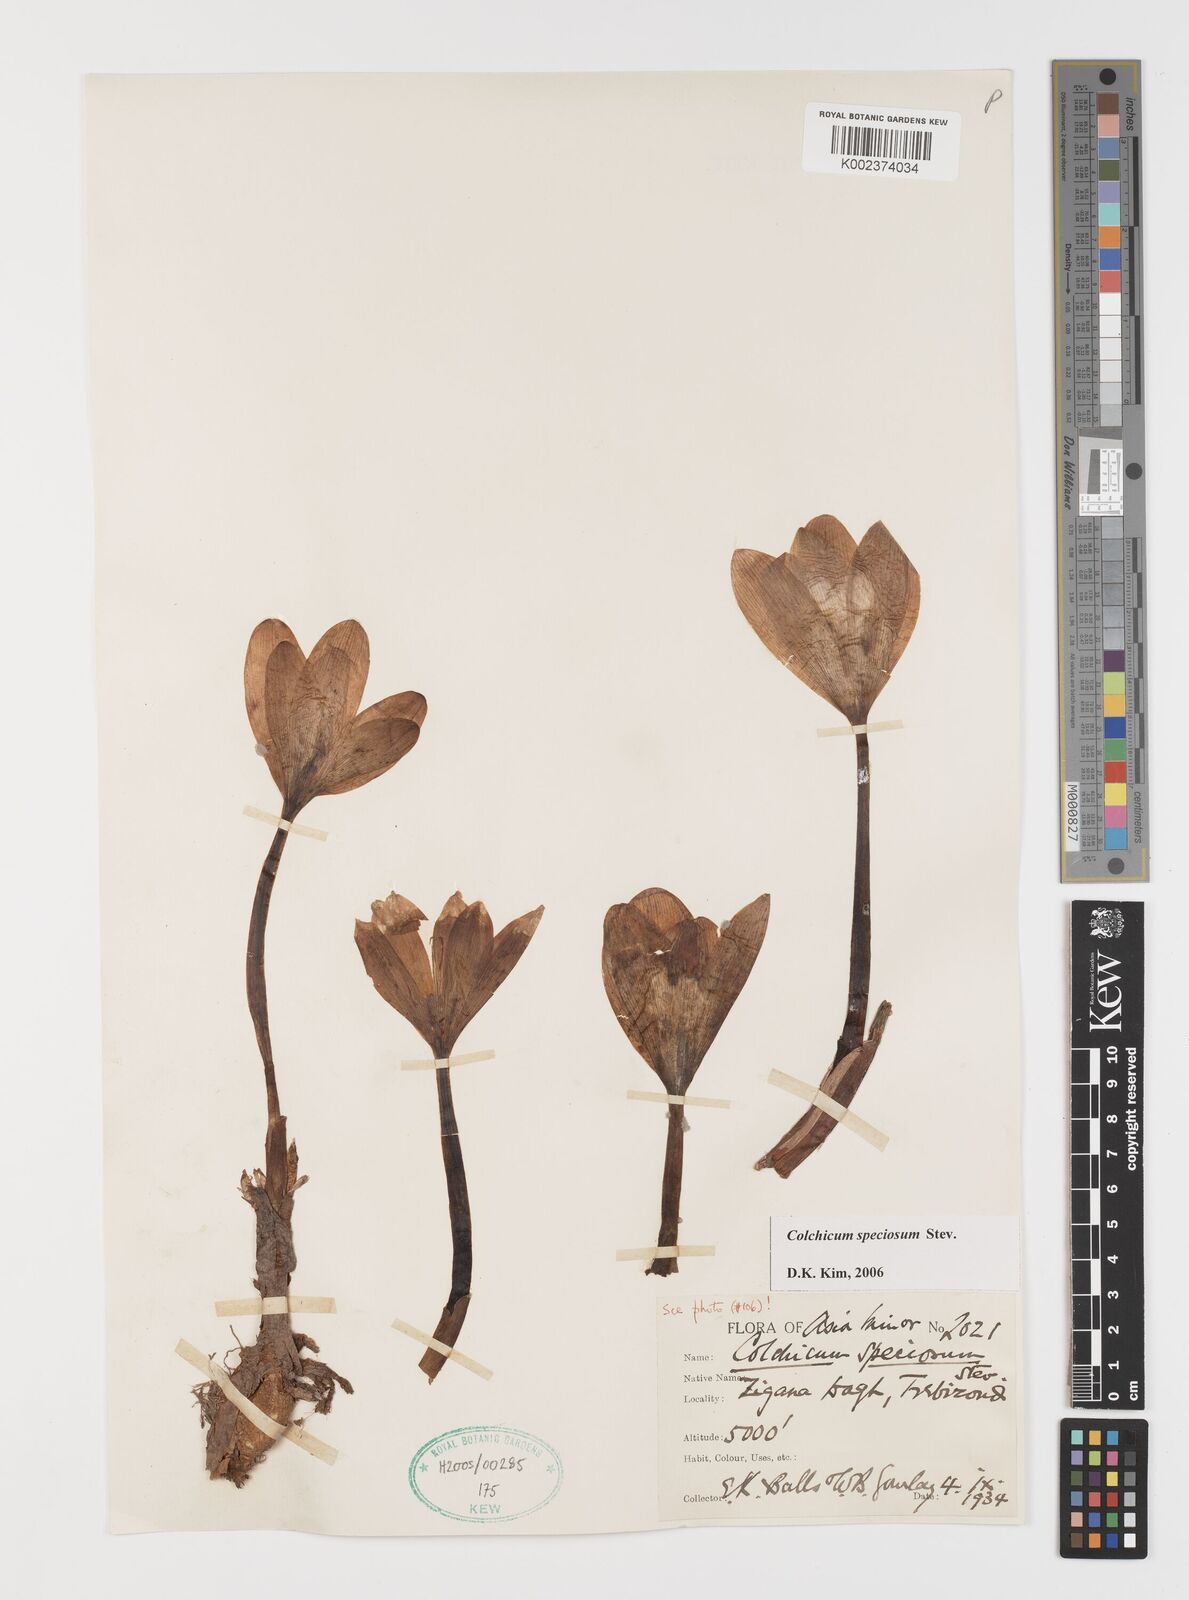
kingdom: Plantae
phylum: Tracheophyta
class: Liliopsida
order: Liliales
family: Colchicaceae
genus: Colchicum
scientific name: Colchicum speciosum
